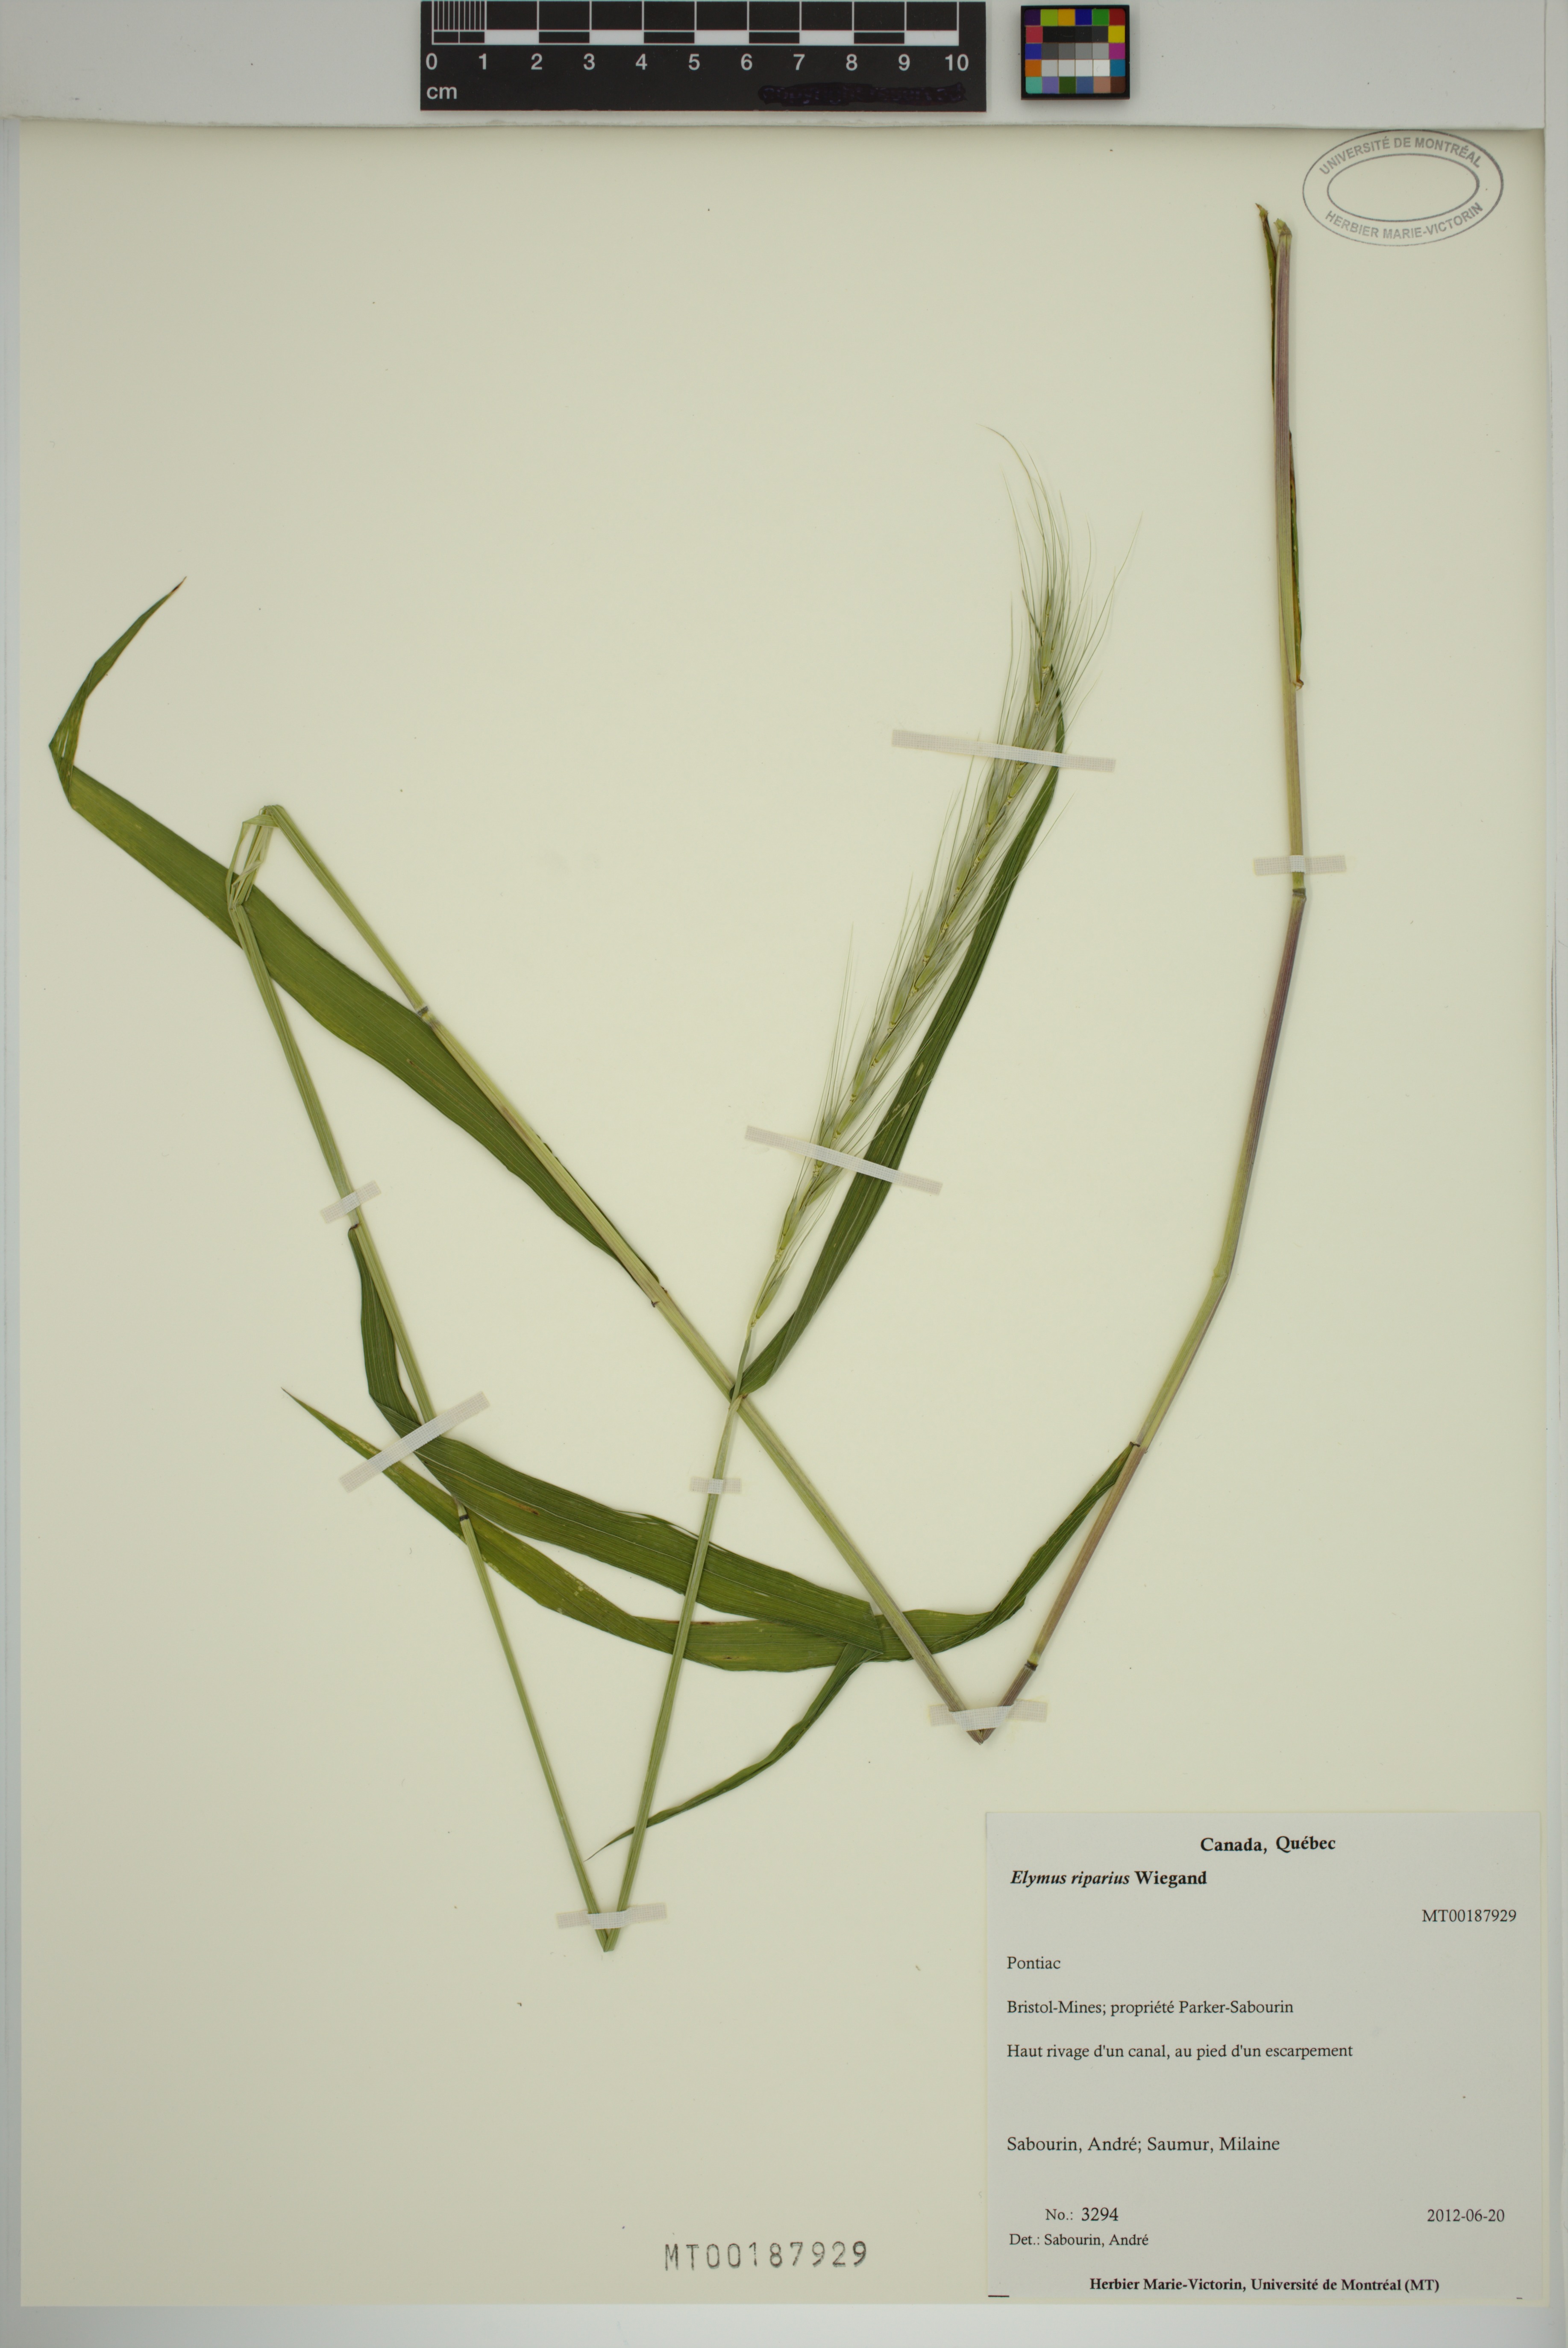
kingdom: Plantae
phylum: Tracheophyta
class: Liliopsida
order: Poales
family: Poaceae
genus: Elymus
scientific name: Elymus riparius
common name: Eastern riverbank wild rye
